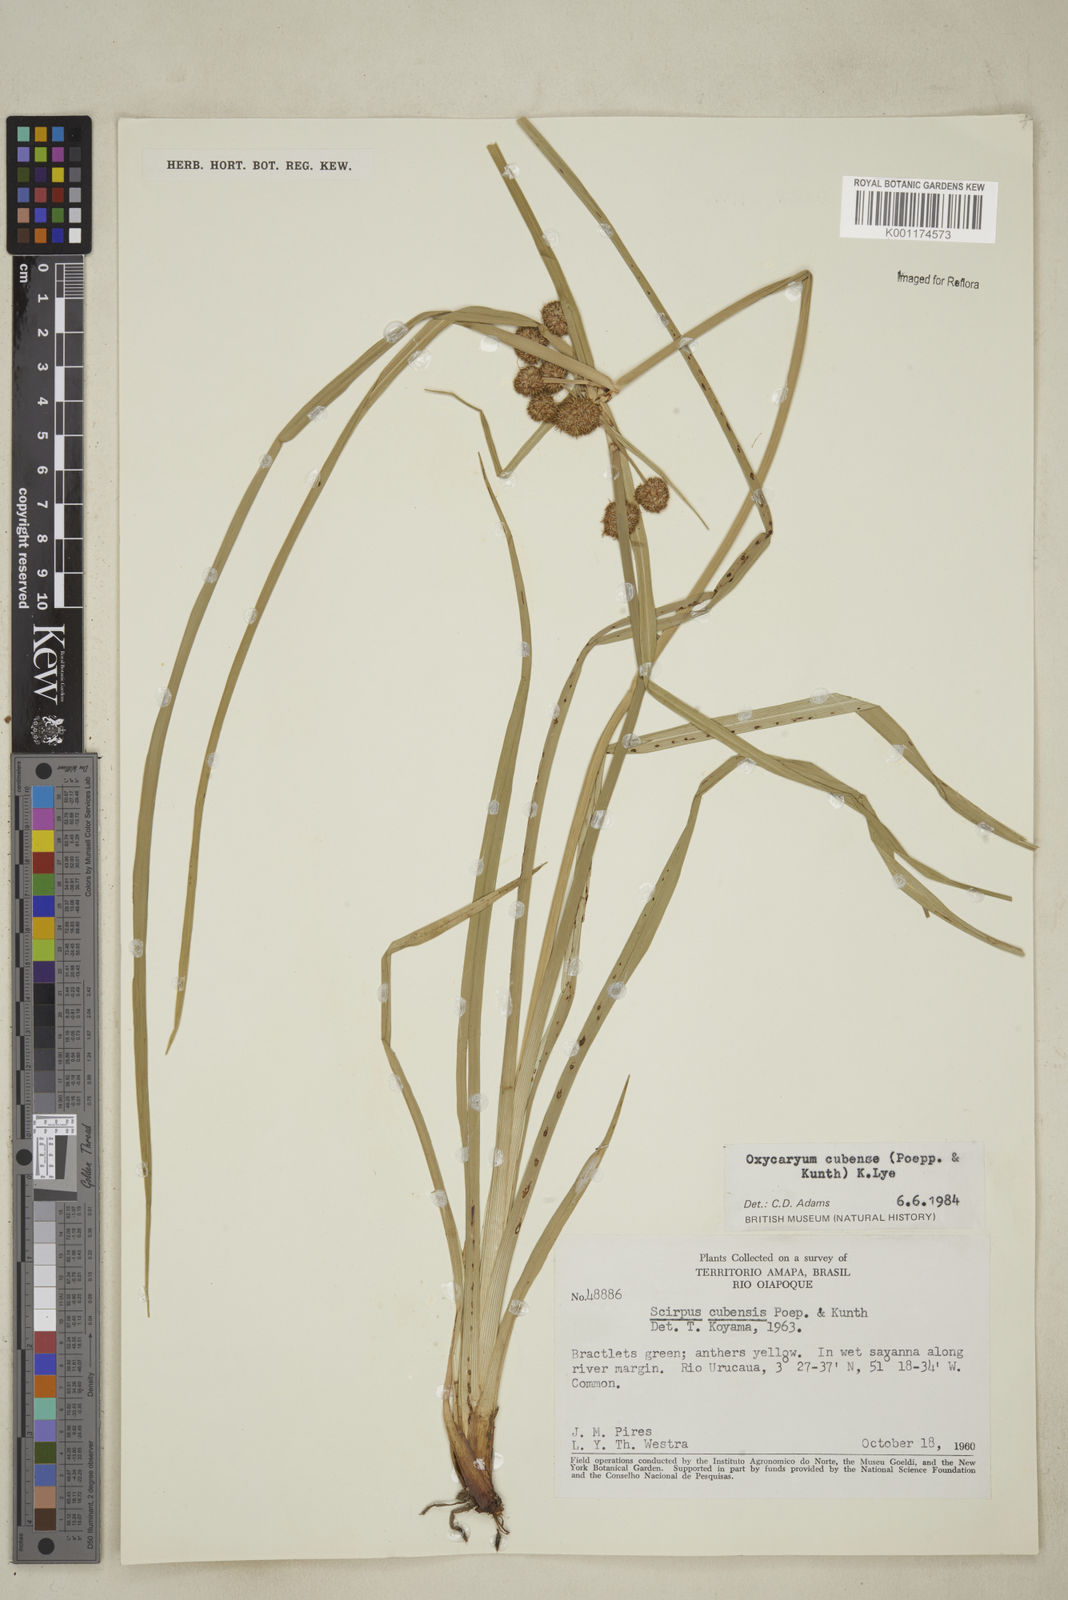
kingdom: Plantae
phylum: Tracheophyta
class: Liliopsida
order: Poales
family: Cyperaceae
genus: Cyperus
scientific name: Cyperus elegans
